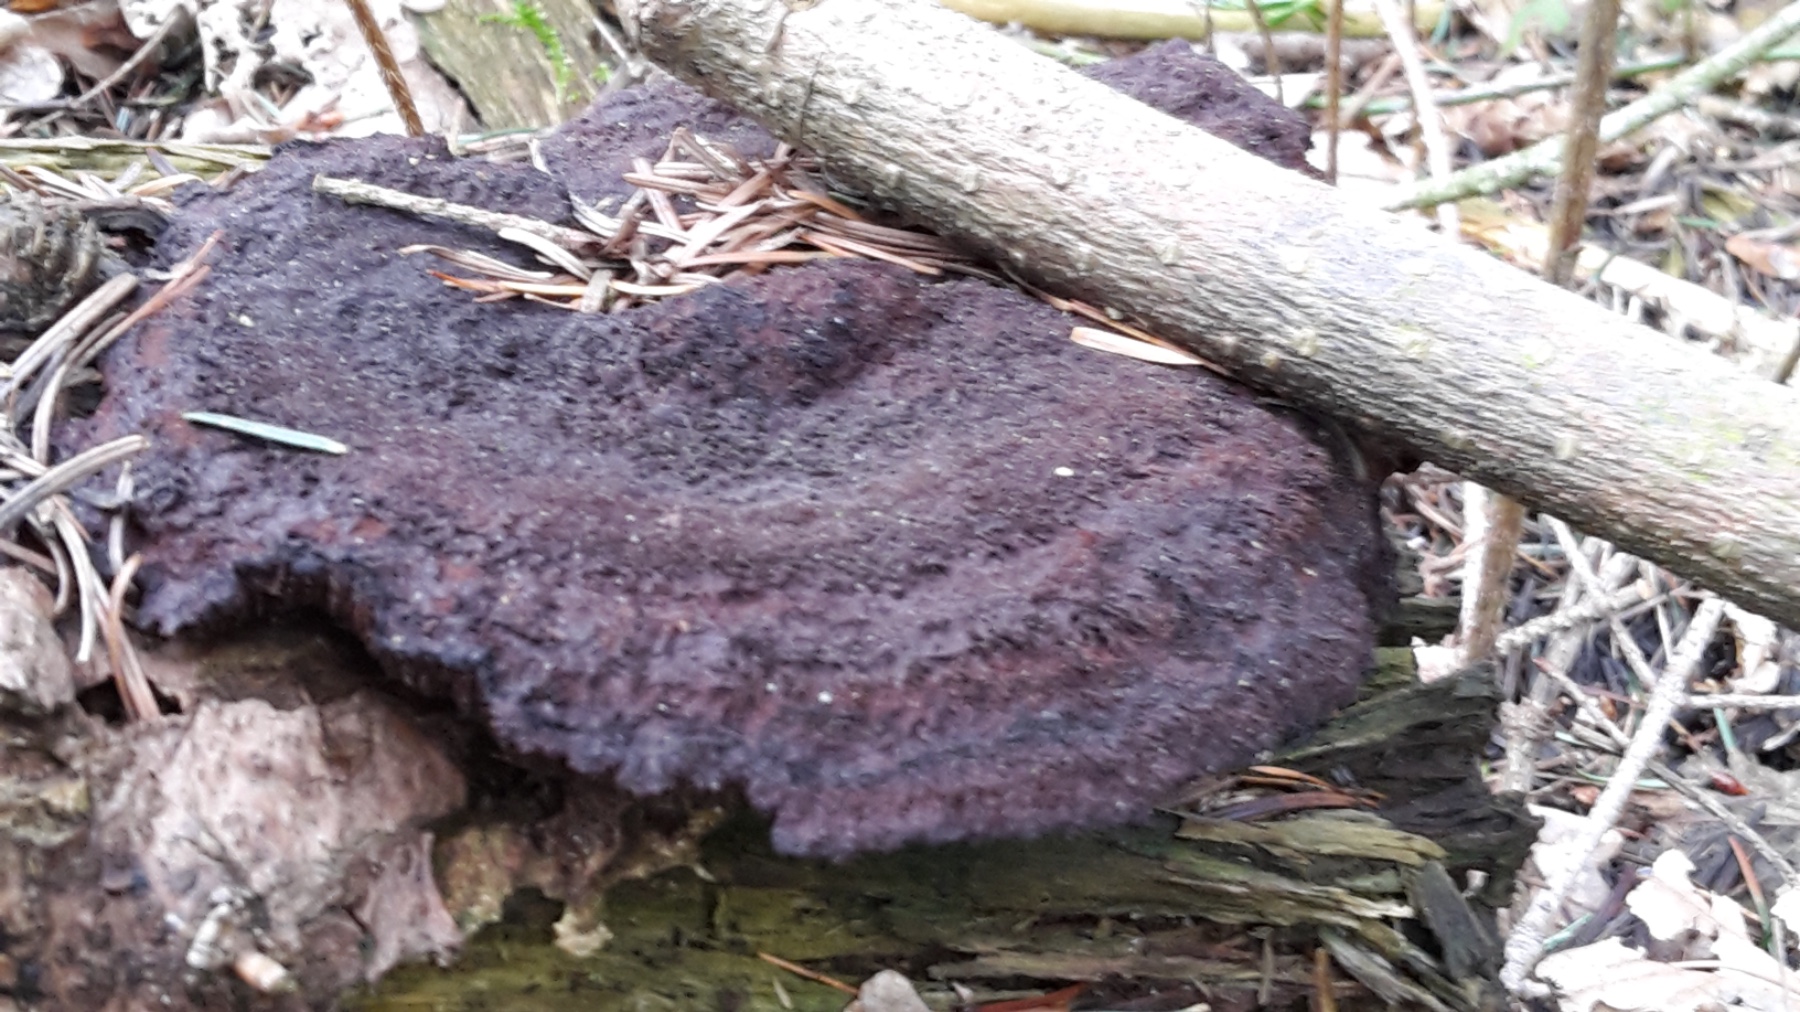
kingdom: Fungi
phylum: Basidiomycota
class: Agaricomycetes
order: Polyporales
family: Laetiporaceae
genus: Phaeolus
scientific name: Phaeolus schweinitzii
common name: brunporesvamp
